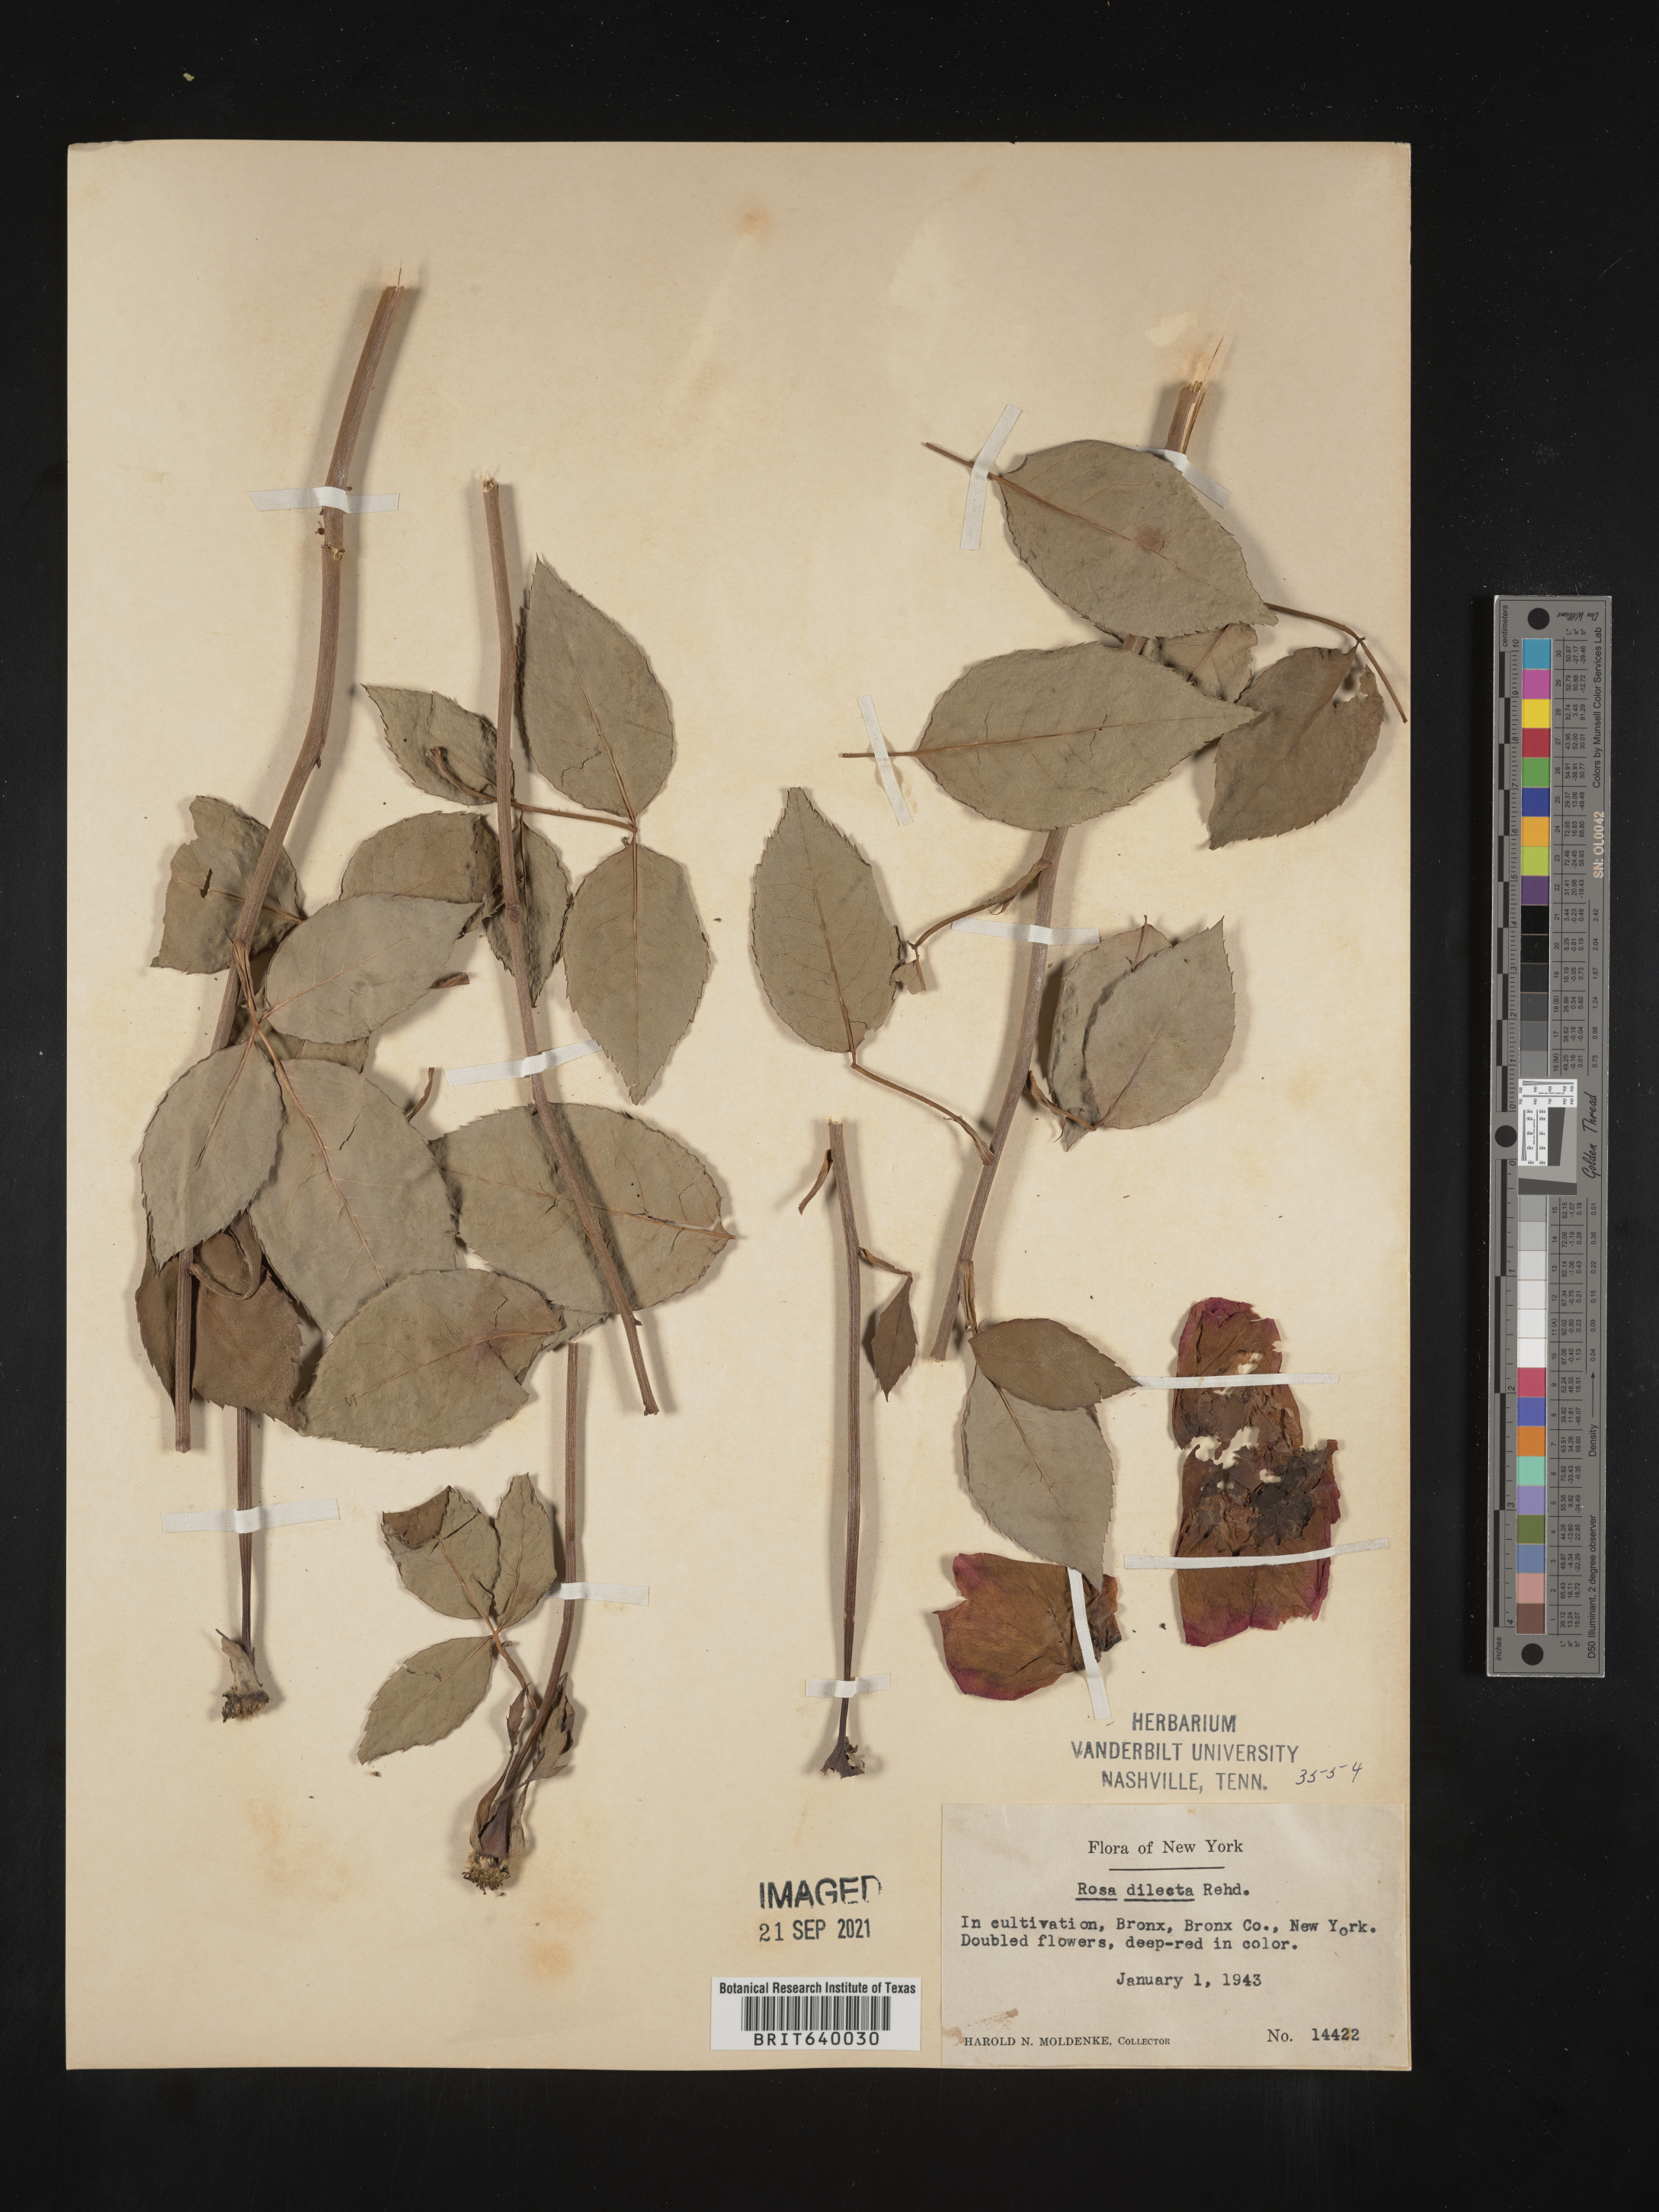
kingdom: Plantae
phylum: Tracheophyta
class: Magnoliopsida
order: Rosales
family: Rosaceae
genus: Rosa
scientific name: Rosa
